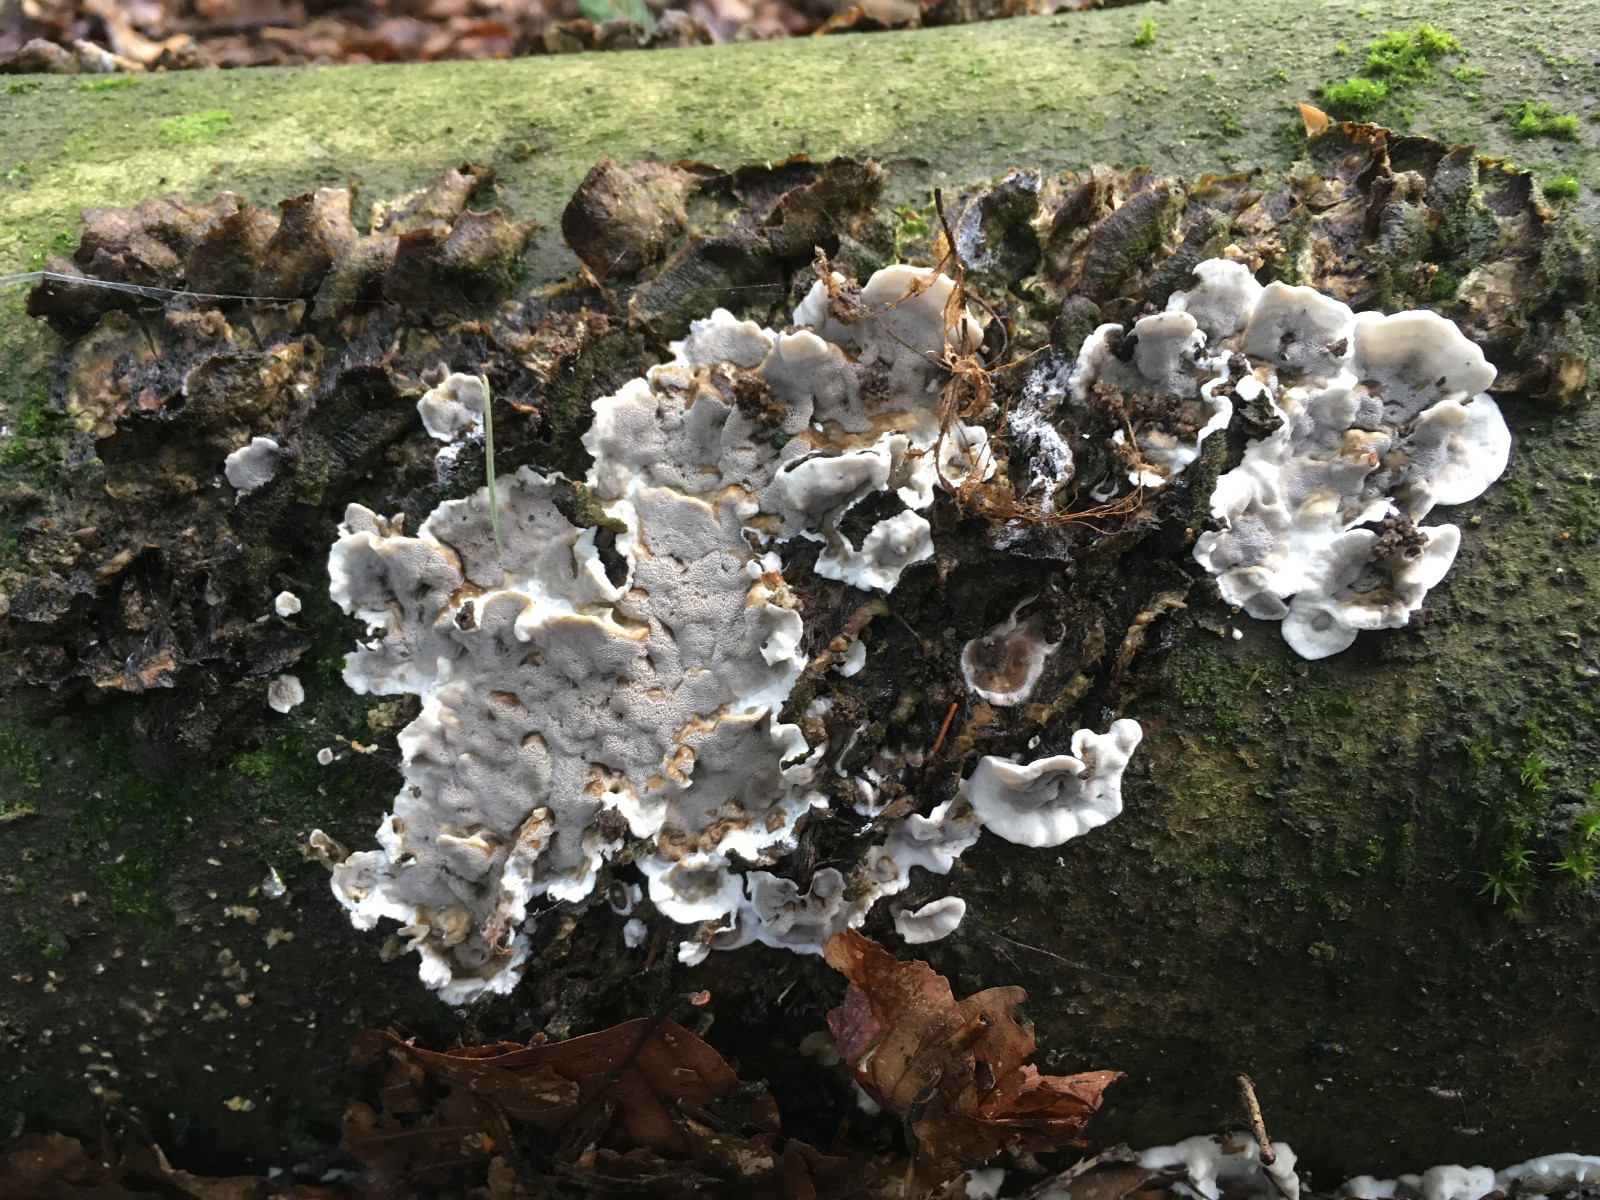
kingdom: Fungi
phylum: Basidiomycota
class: Agaricomycetes
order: Polyporales
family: Phanerochaetaceae
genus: Bjerkandera
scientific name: Bjerkandera adusta
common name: sveden sodporesvamp
